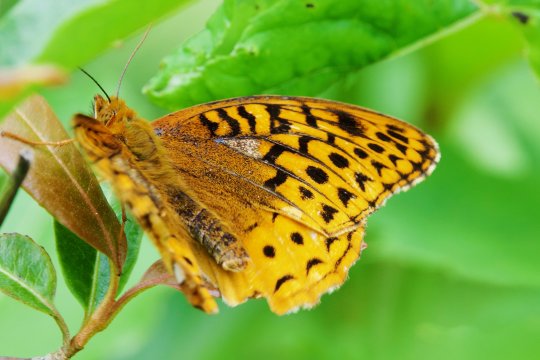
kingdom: Animalia
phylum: Arthropoda
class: Insecta
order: Lepidoptera
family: Nymphalidae
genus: Speyeria
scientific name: Speyeria cybele
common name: Great Spangled Fritillary
